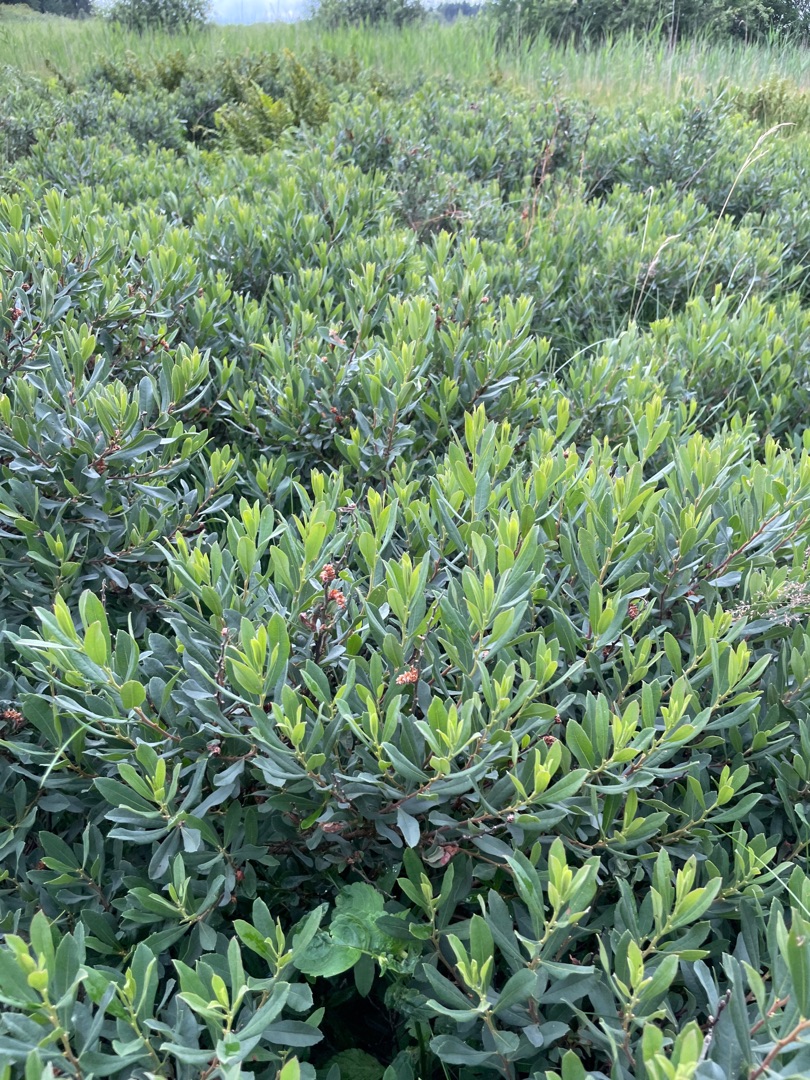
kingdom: Plantae
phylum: Tracheophyta
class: Magnoliopsida
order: Fagales
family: Myricaceae
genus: Myrica
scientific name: Myrica gale
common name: Pors
